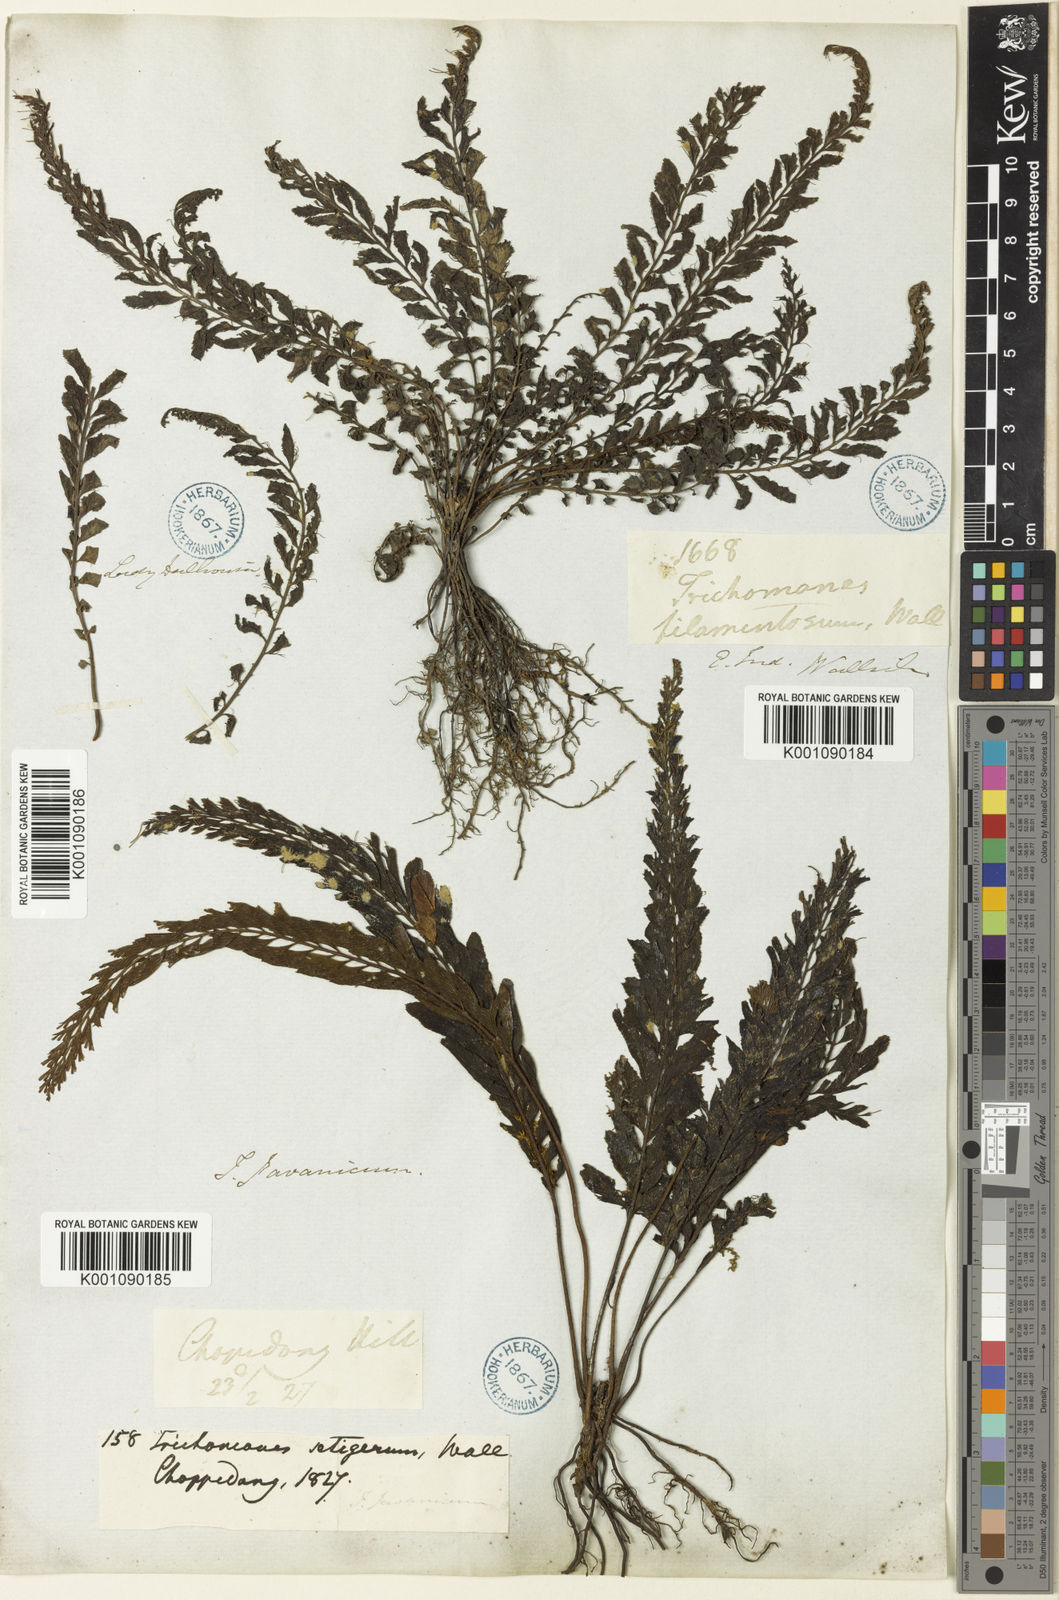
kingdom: Plantae
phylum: Tracheophyta
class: Polypodiopsida
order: Hymenophyllales
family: Hymenophyllaceae
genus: Cephalomanes
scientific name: Cephalomanes javanicum
